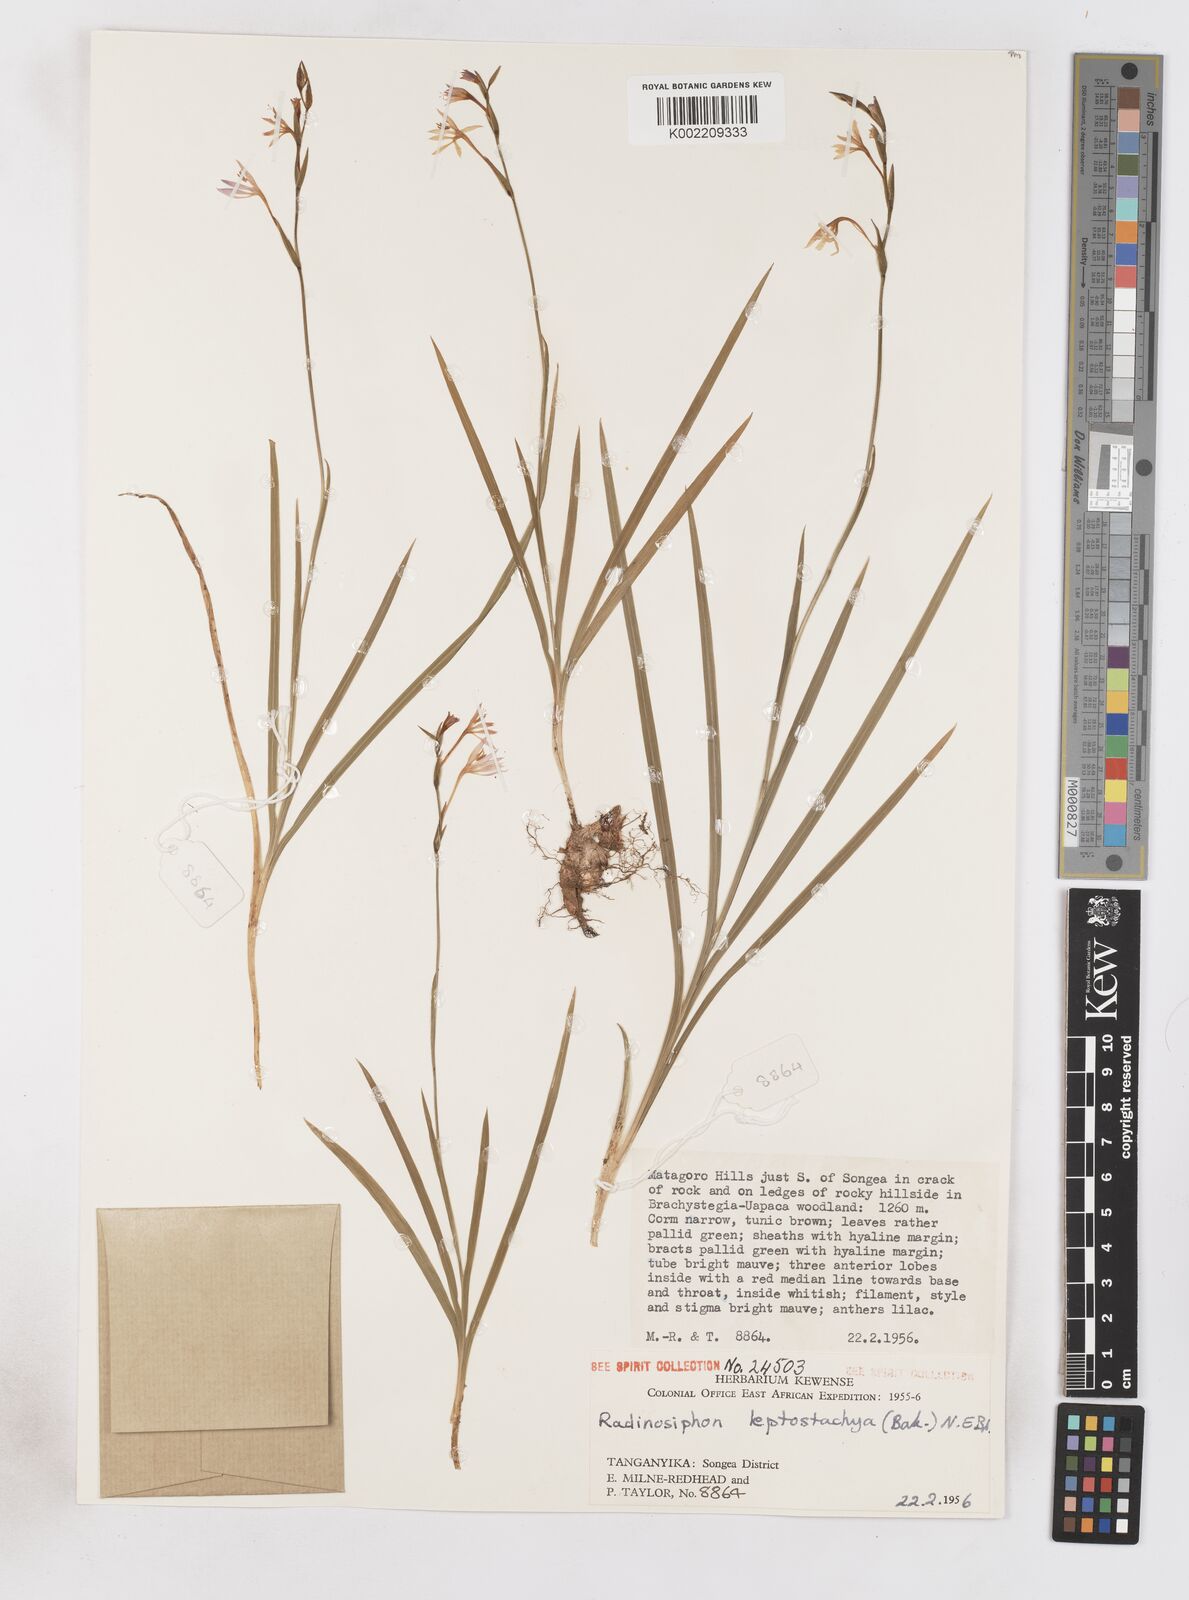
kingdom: Plantae
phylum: Tracheophyta
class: Liliopsida
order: Asparagales
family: Iridaceae
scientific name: Iridaceae
